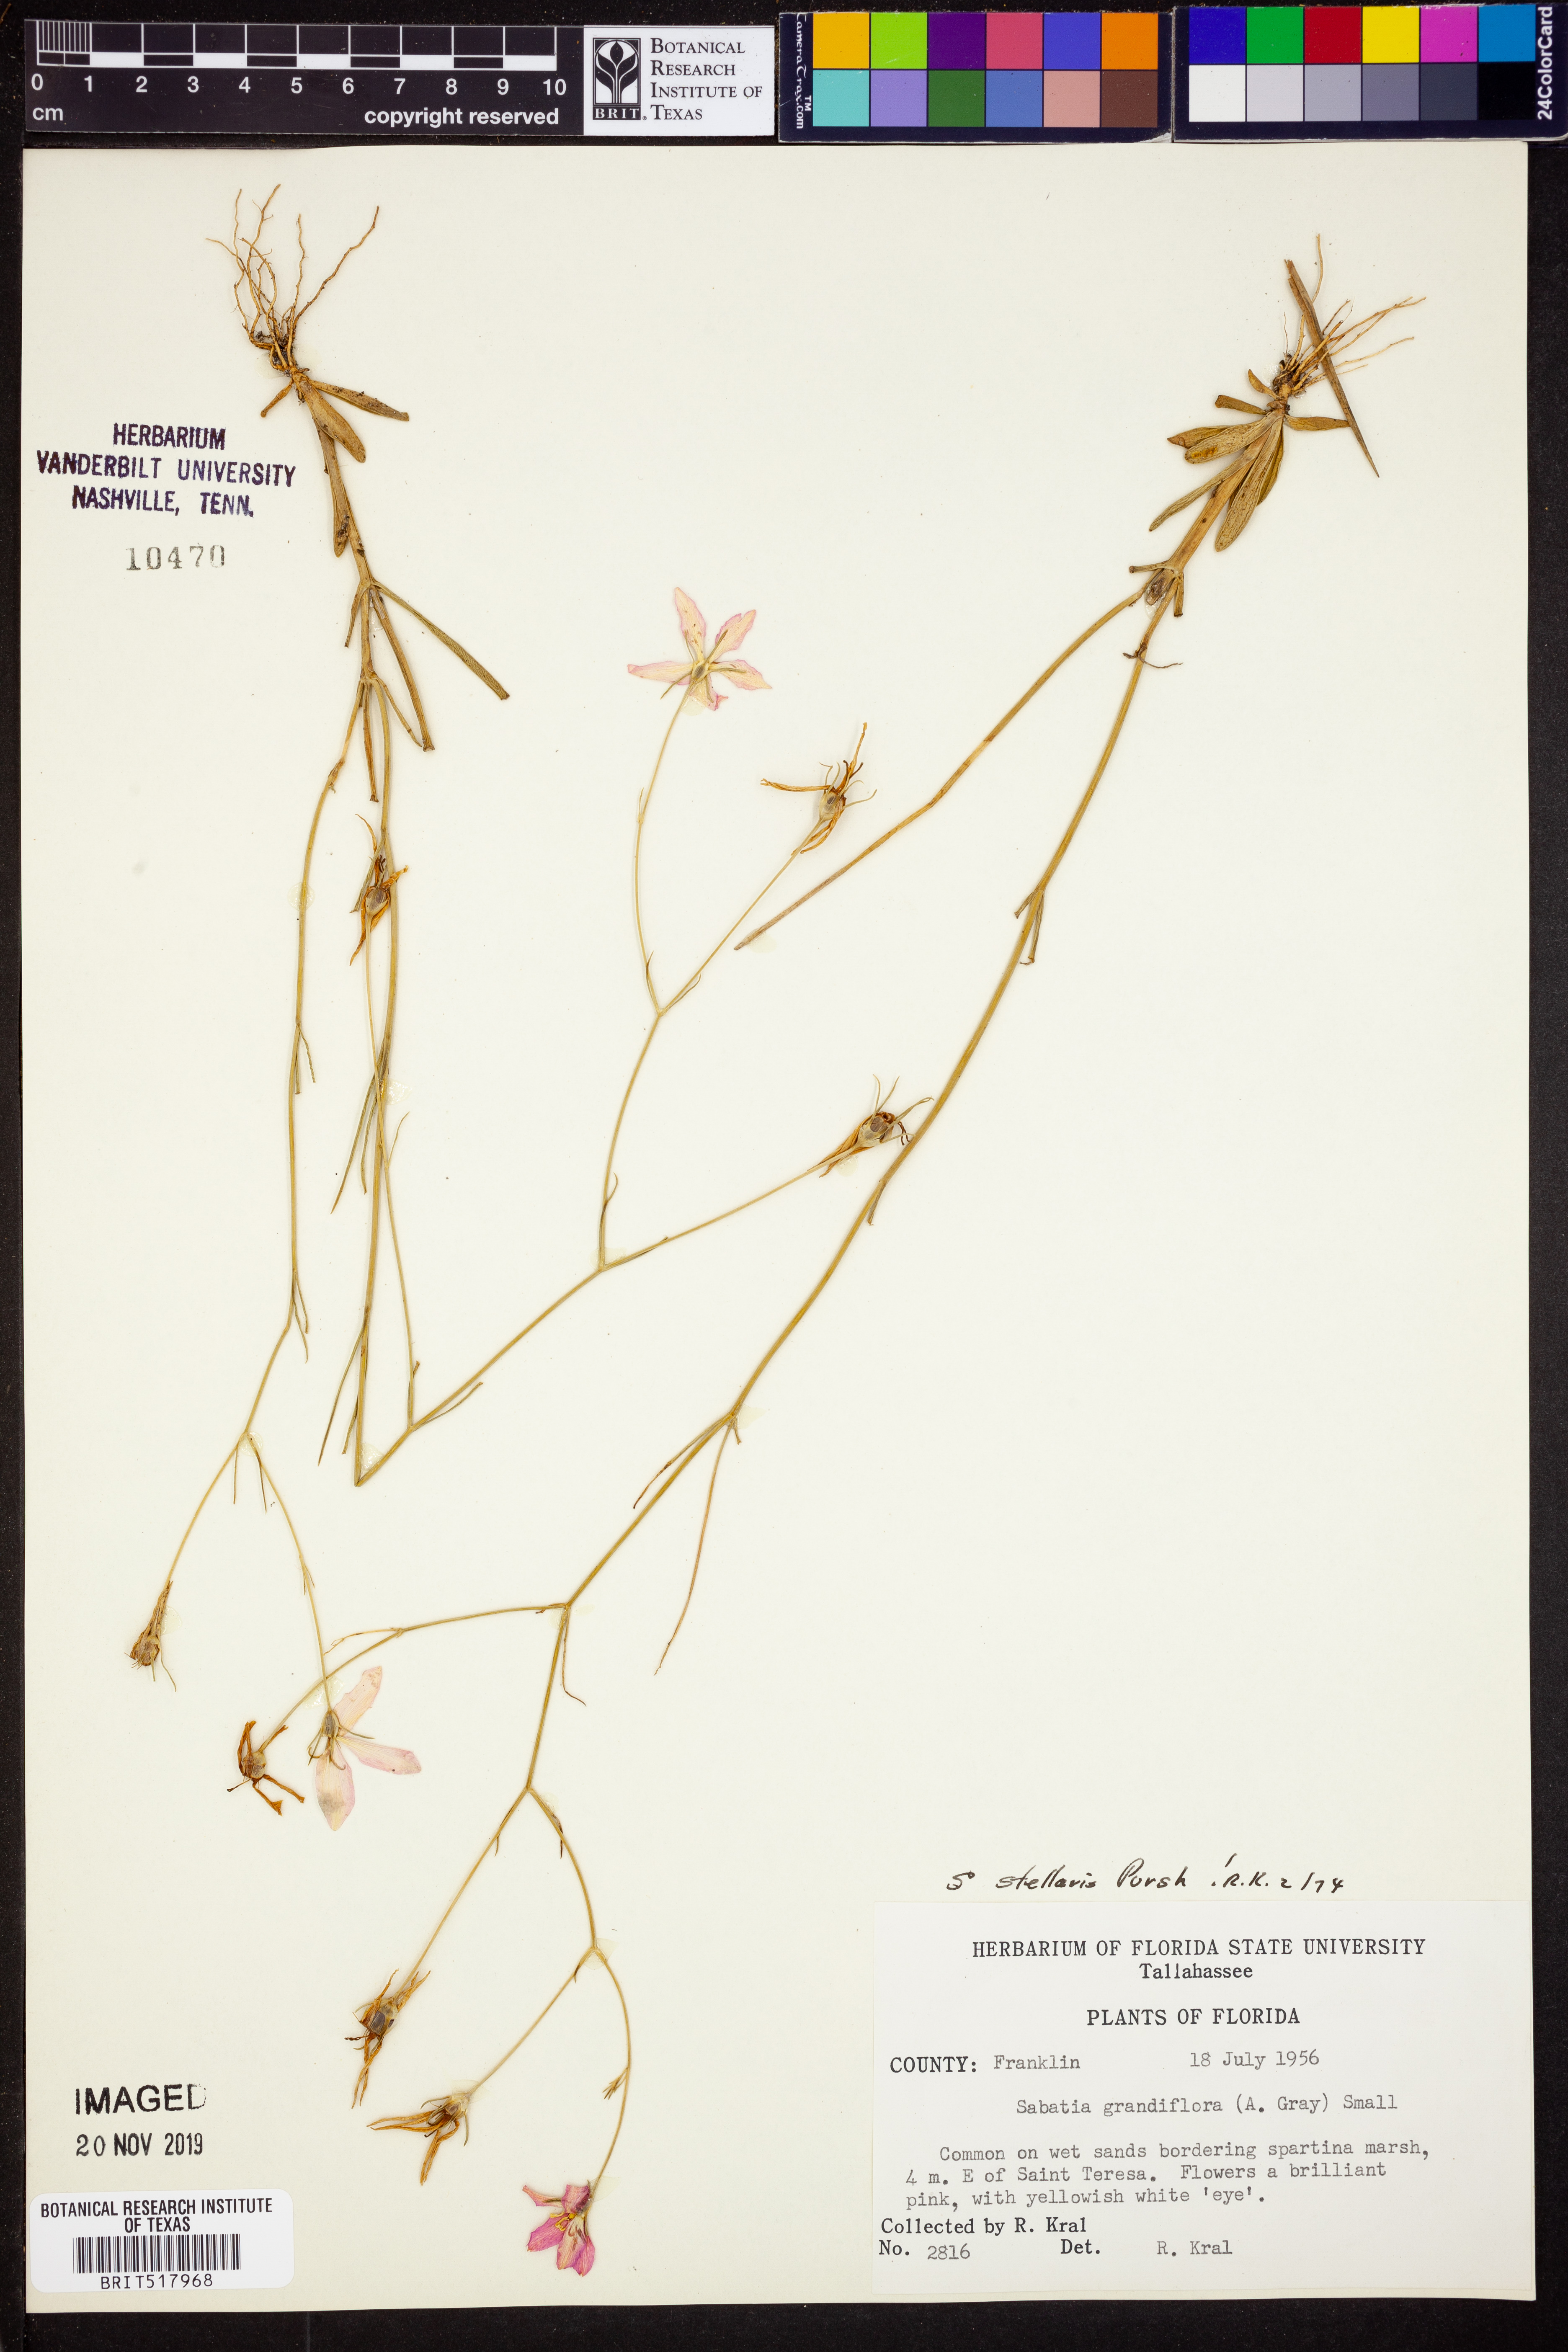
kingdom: Plantae
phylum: Tracheophyta
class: Magnoliopsida
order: Gentianales
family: Gentianaceae
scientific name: Gentianaceae
